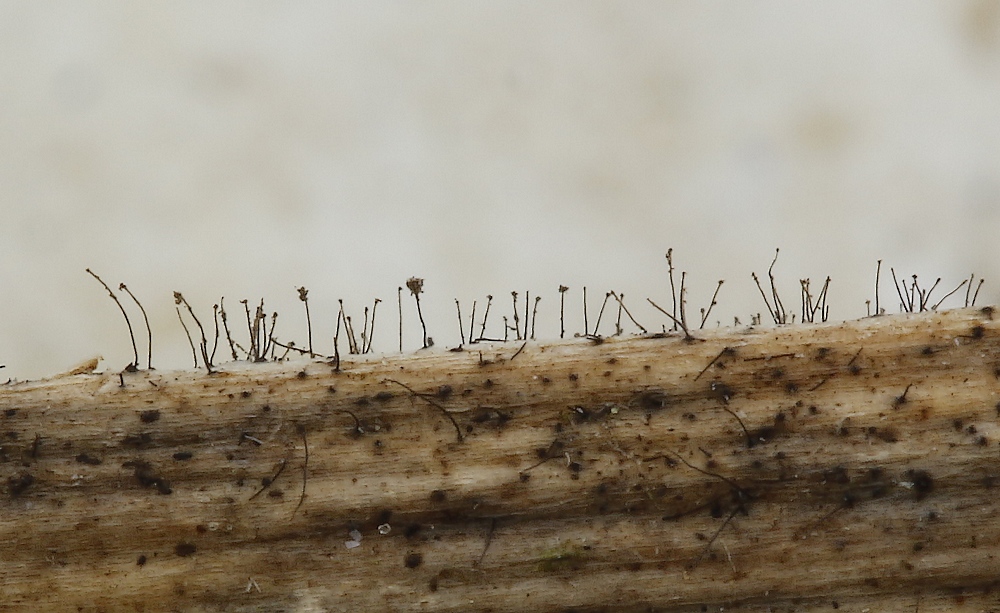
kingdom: Fungi
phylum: Ascomycota
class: Dothideomycetes
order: Pleosporales
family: Periconiaceae
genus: Periconia
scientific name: Periconia
